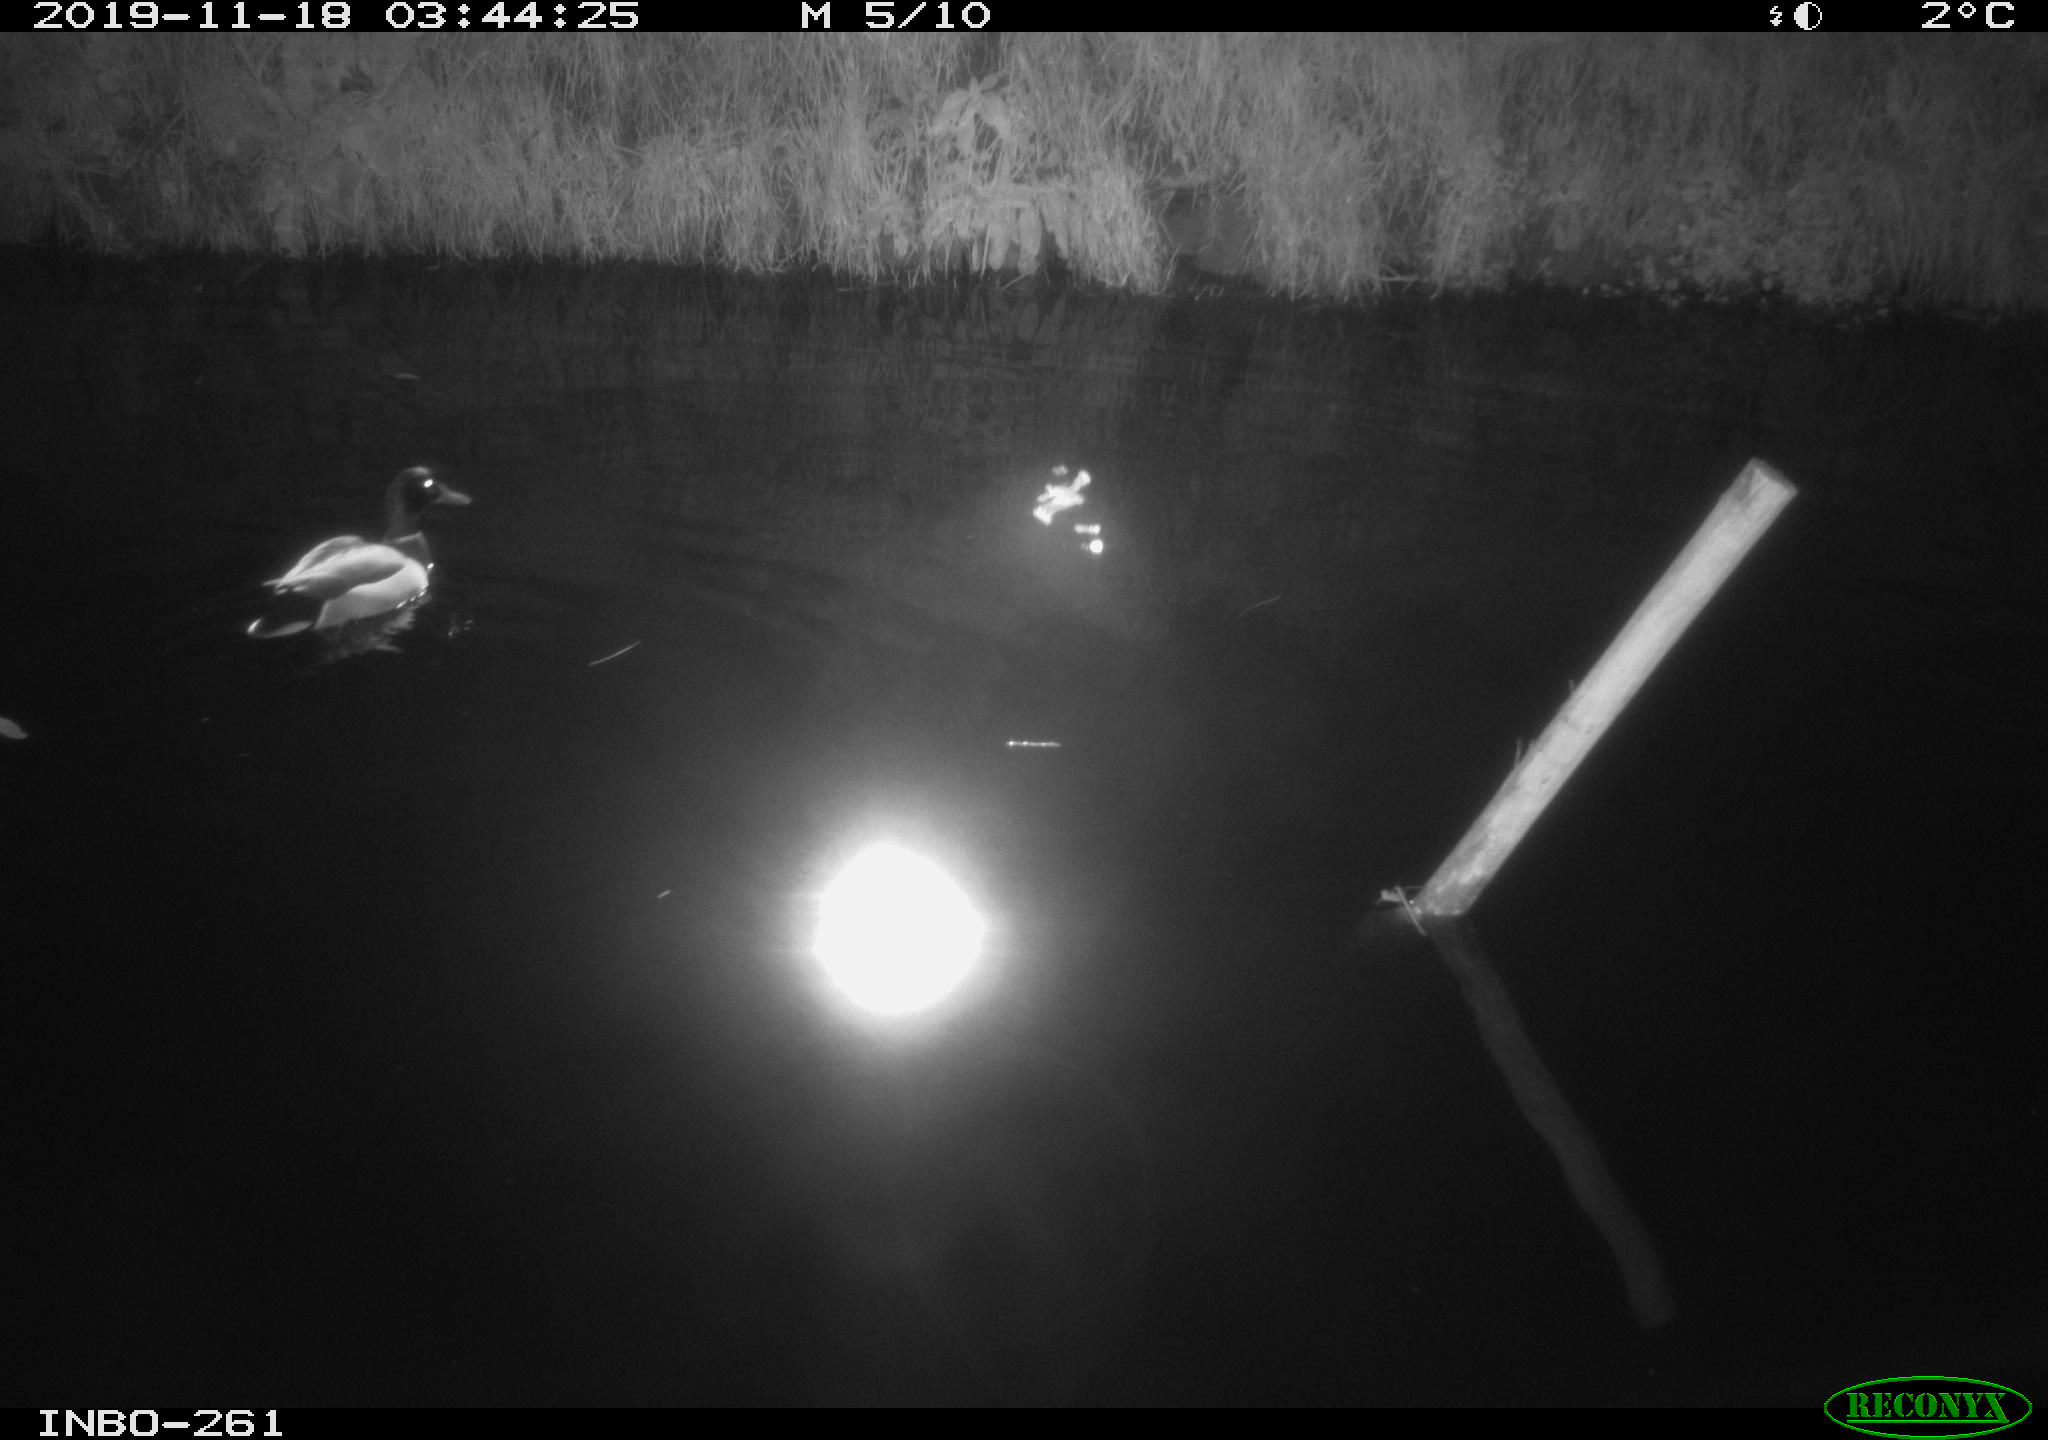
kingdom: Animalia
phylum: Chordata
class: Aves
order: Anseriformes
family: Anatidae
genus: Anas
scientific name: Anas platyrhynchos
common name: Mallard
